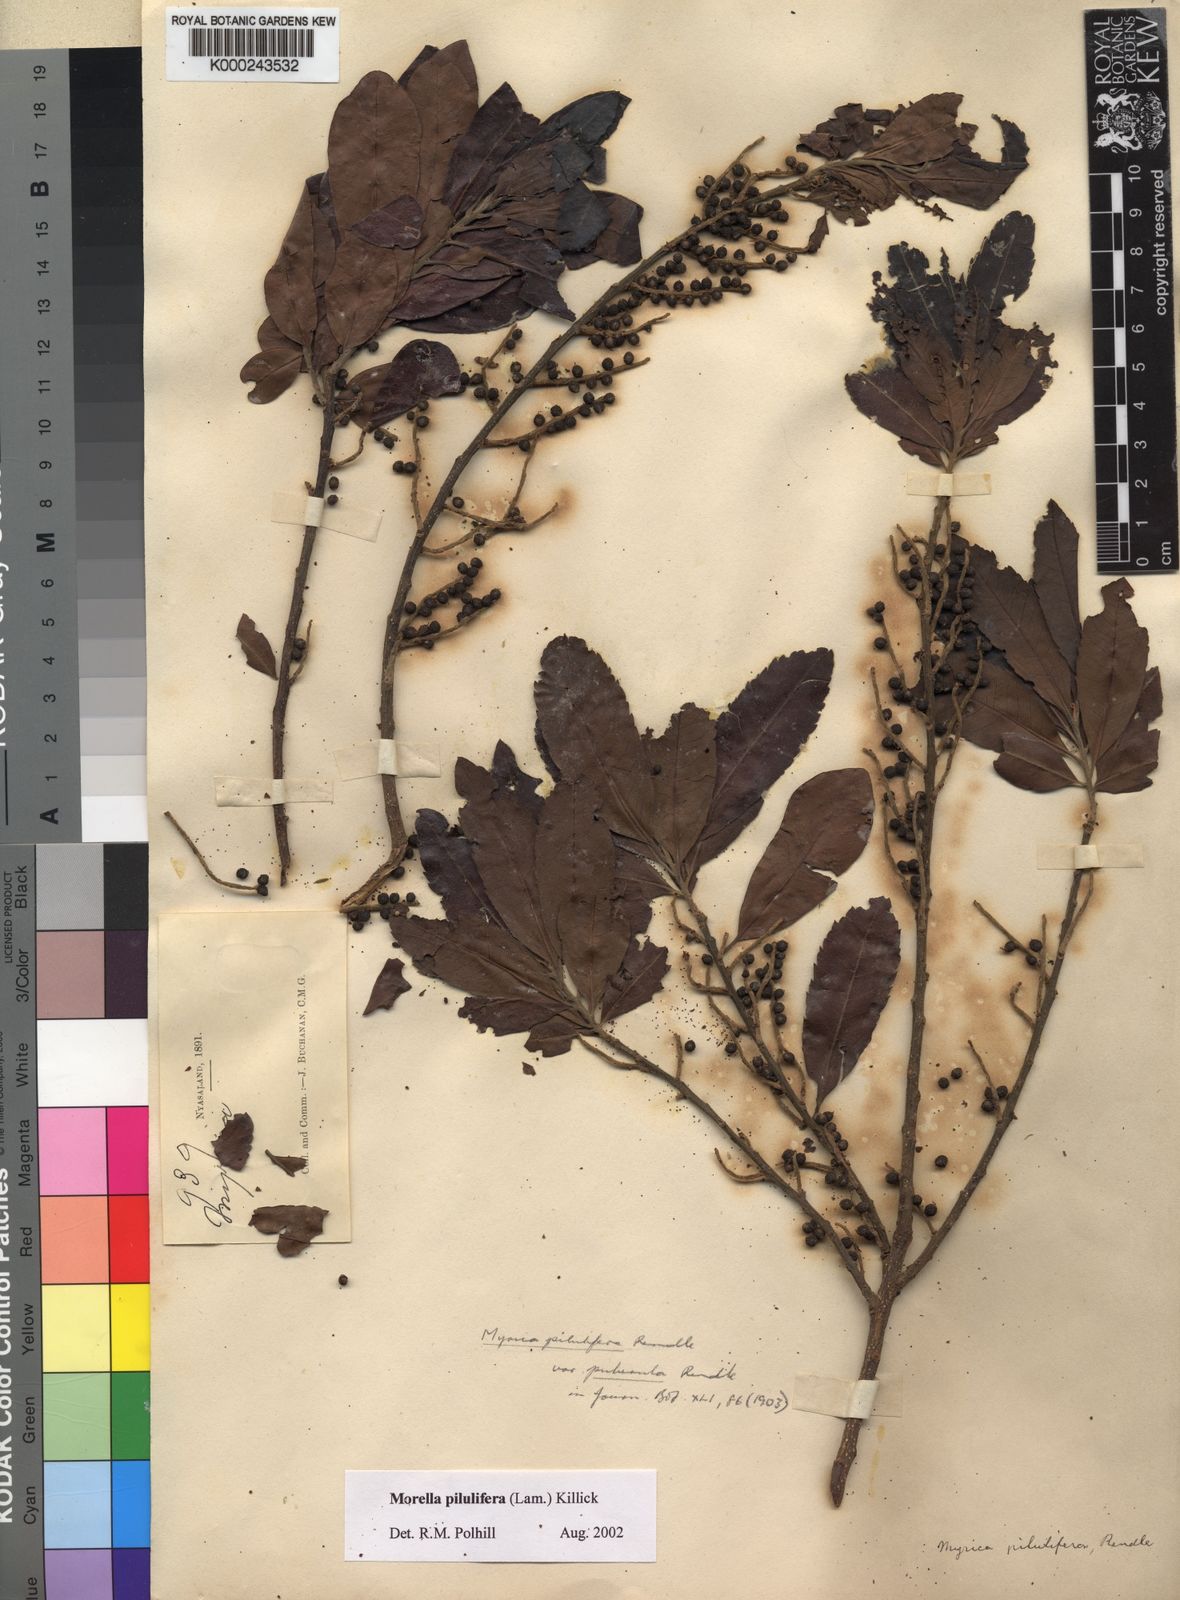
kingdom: Plantae
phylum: Tracheophyta
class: Magnoliopsida
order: Fagales
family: Myricaceae
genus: Morella
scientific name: Morella pilulifera
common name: Broad-leaved waxberry
